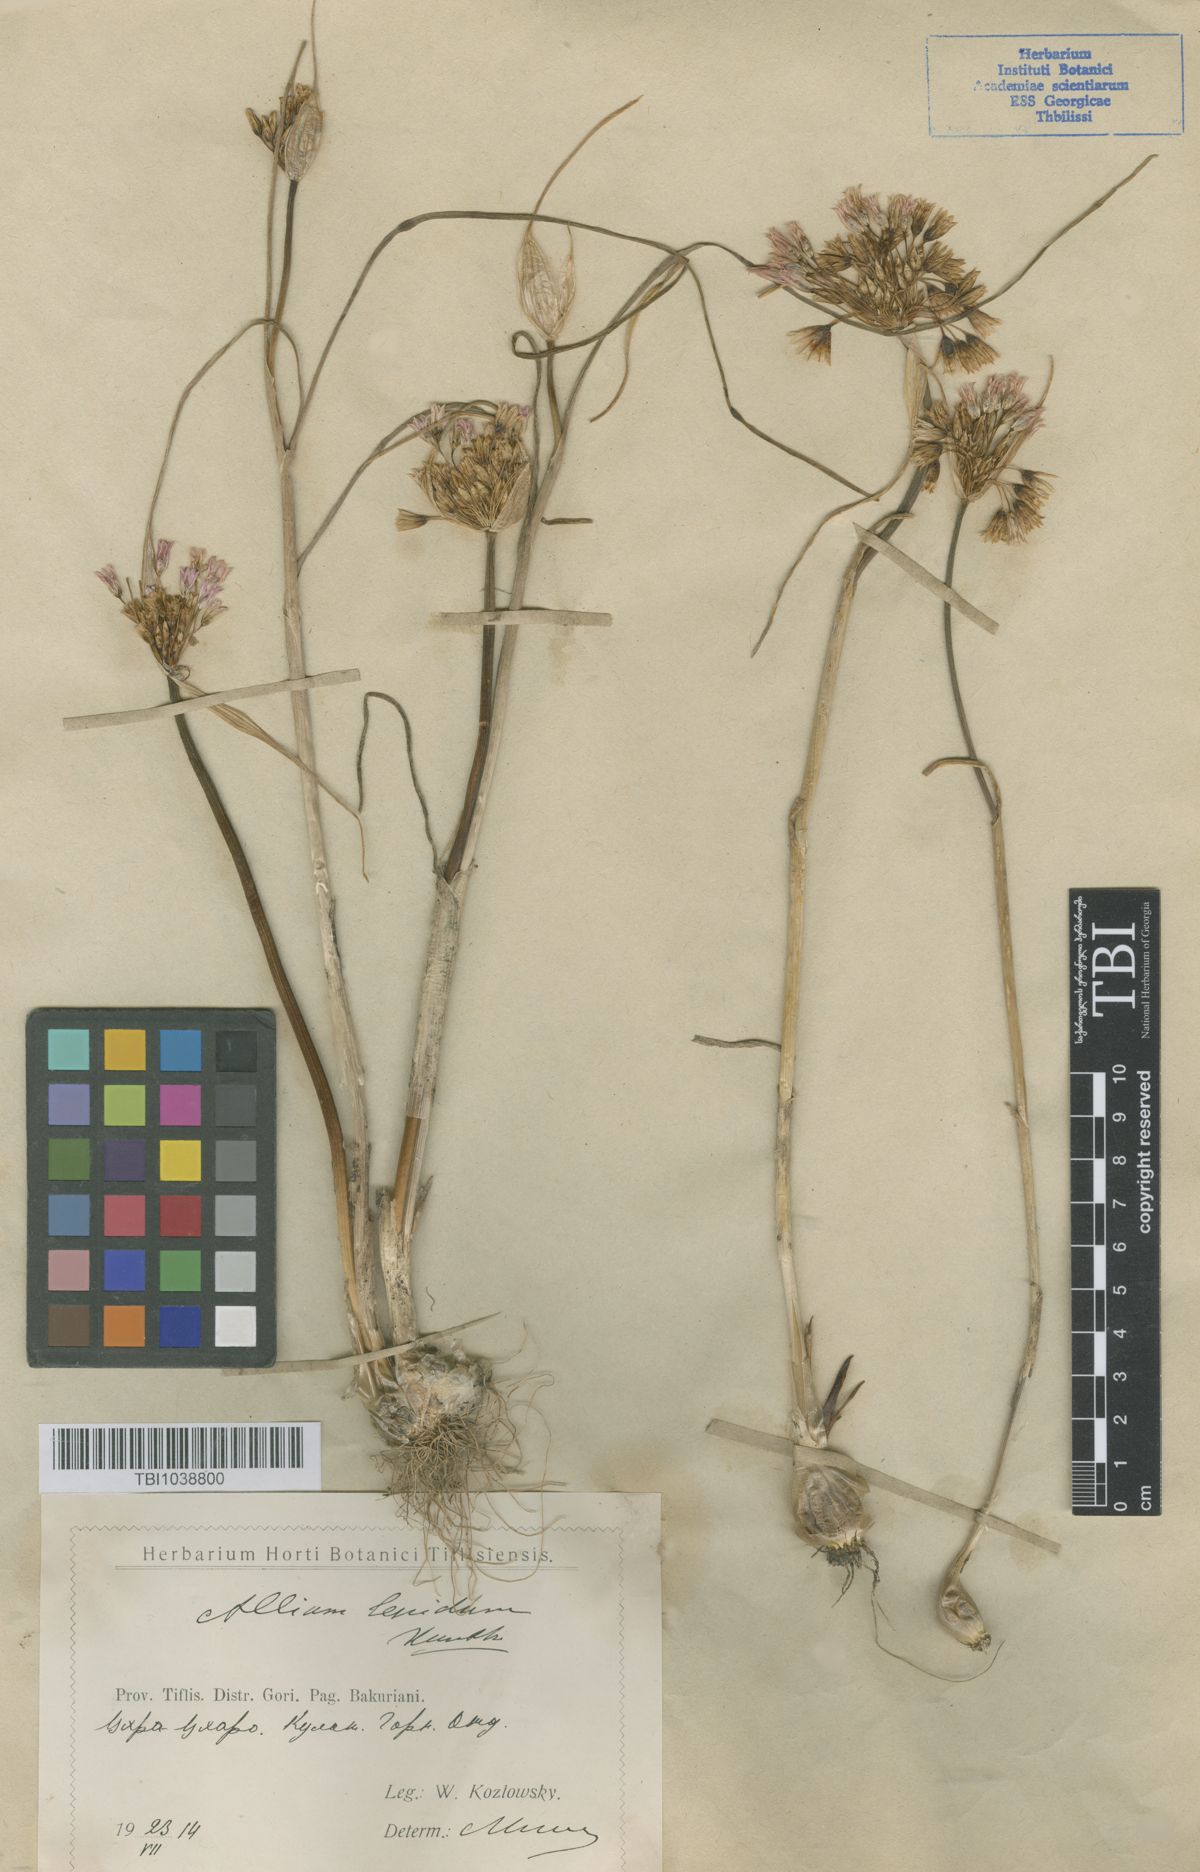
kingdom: Plantae
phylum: Tracheophyta
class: Liliopsida
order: Asparagales
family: Amaryllidaceae
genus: Allium
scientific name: Allium kunthianum
